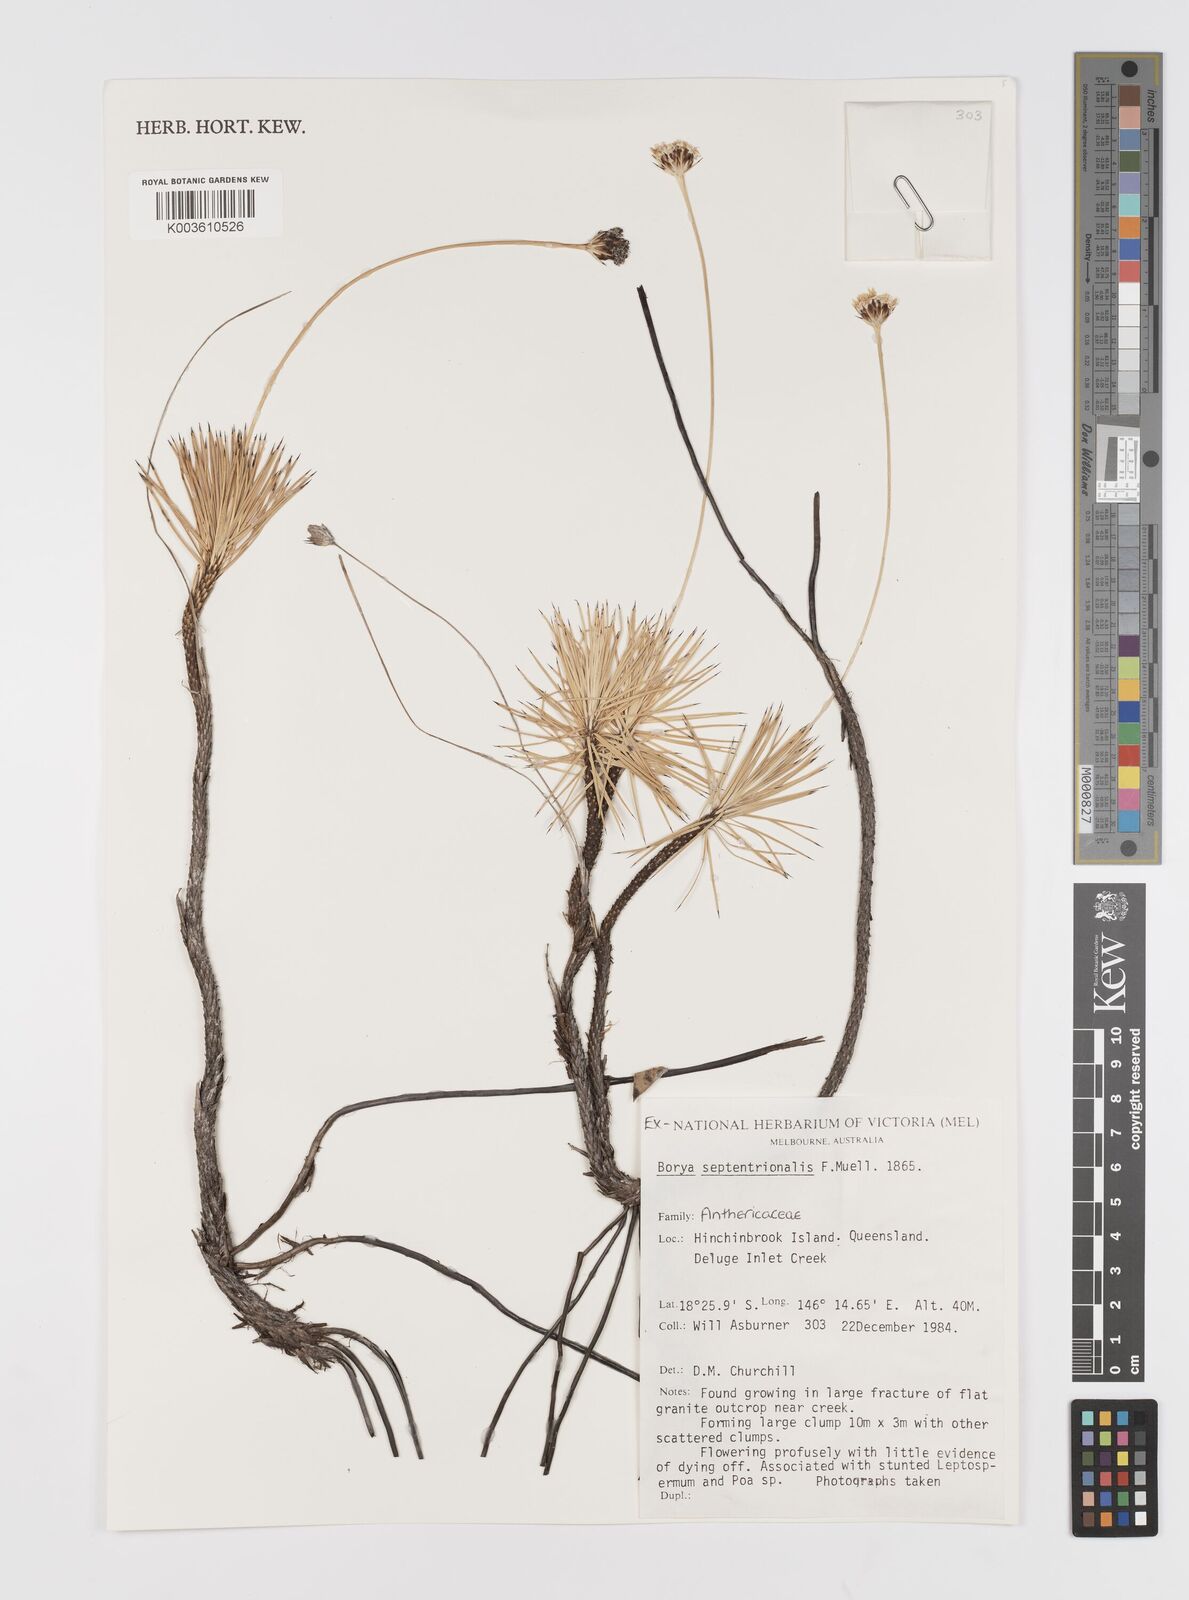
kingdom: Plantae
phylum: Tracheophyta
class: Liliopsida
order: Asparagales
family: Boryaceae
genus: Borya
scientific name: Borya septentrionalis
